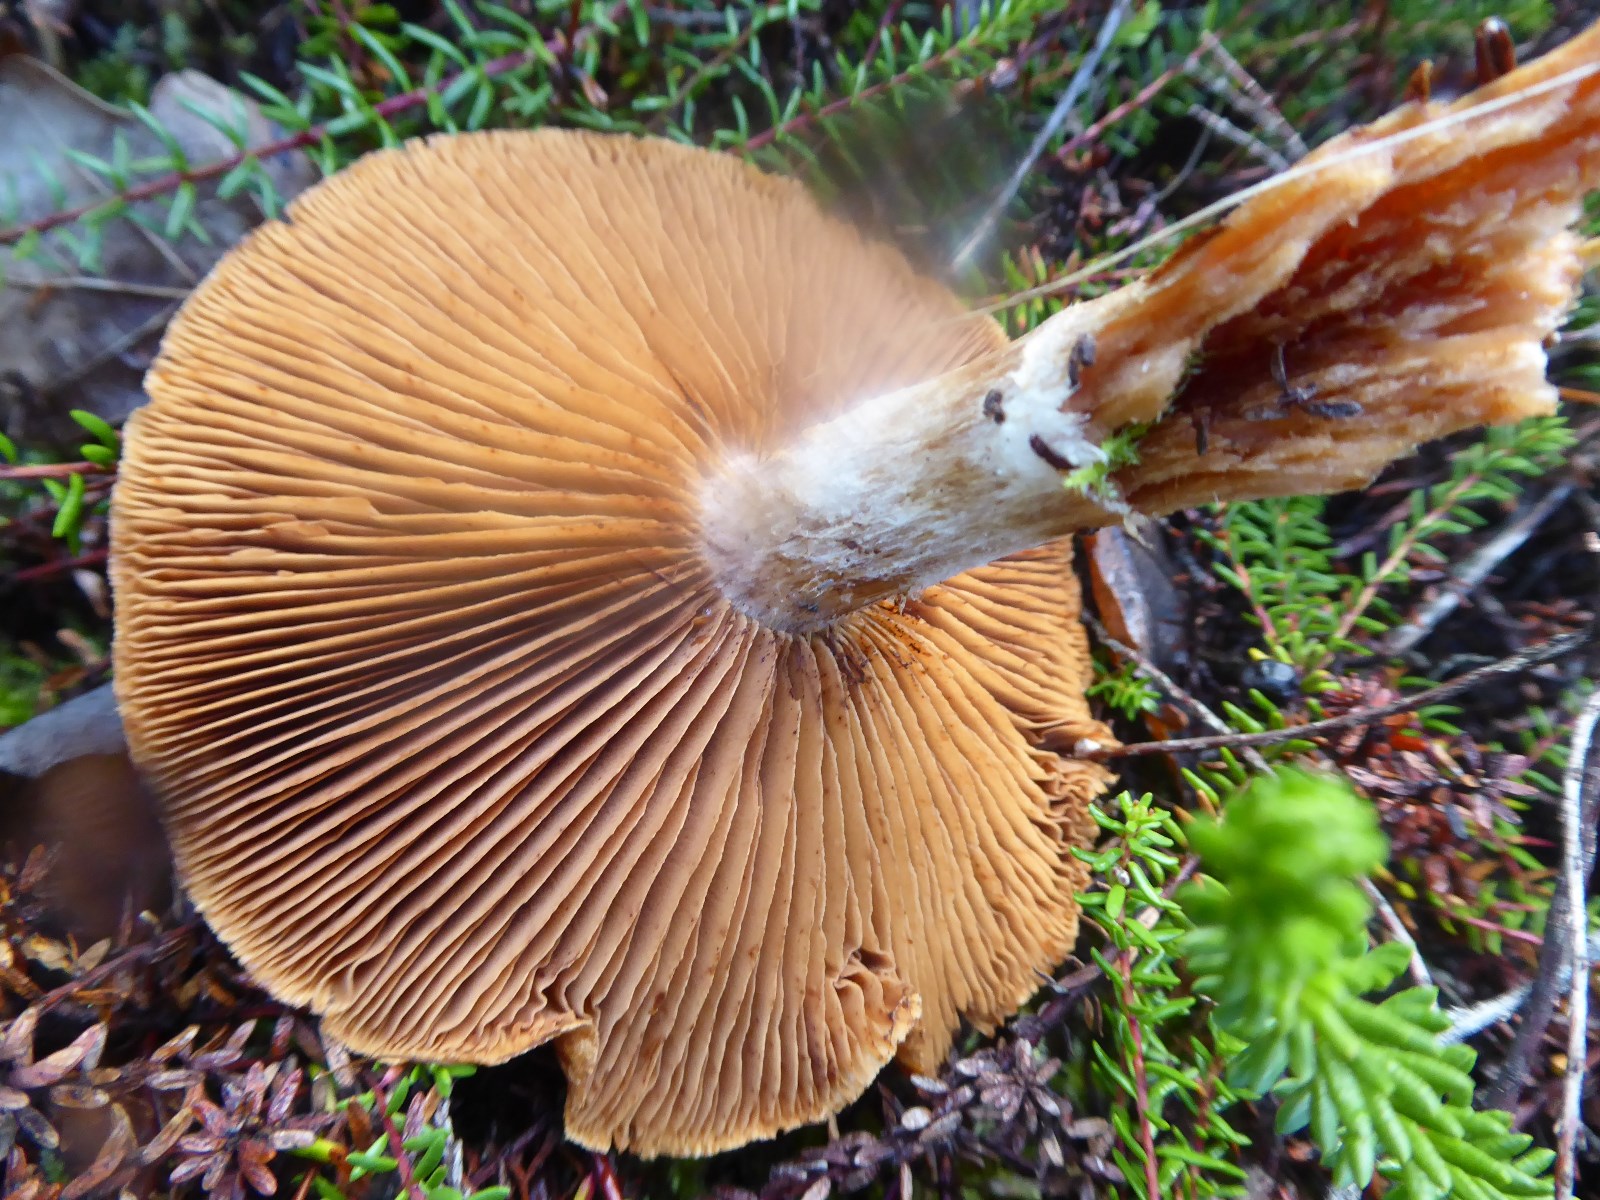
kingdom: Fungi
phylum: Basidiomycota
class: Agaricomycetes
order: Agaricales
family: Cortinariaceae
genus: Cortinarius
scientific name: Cortinarius
